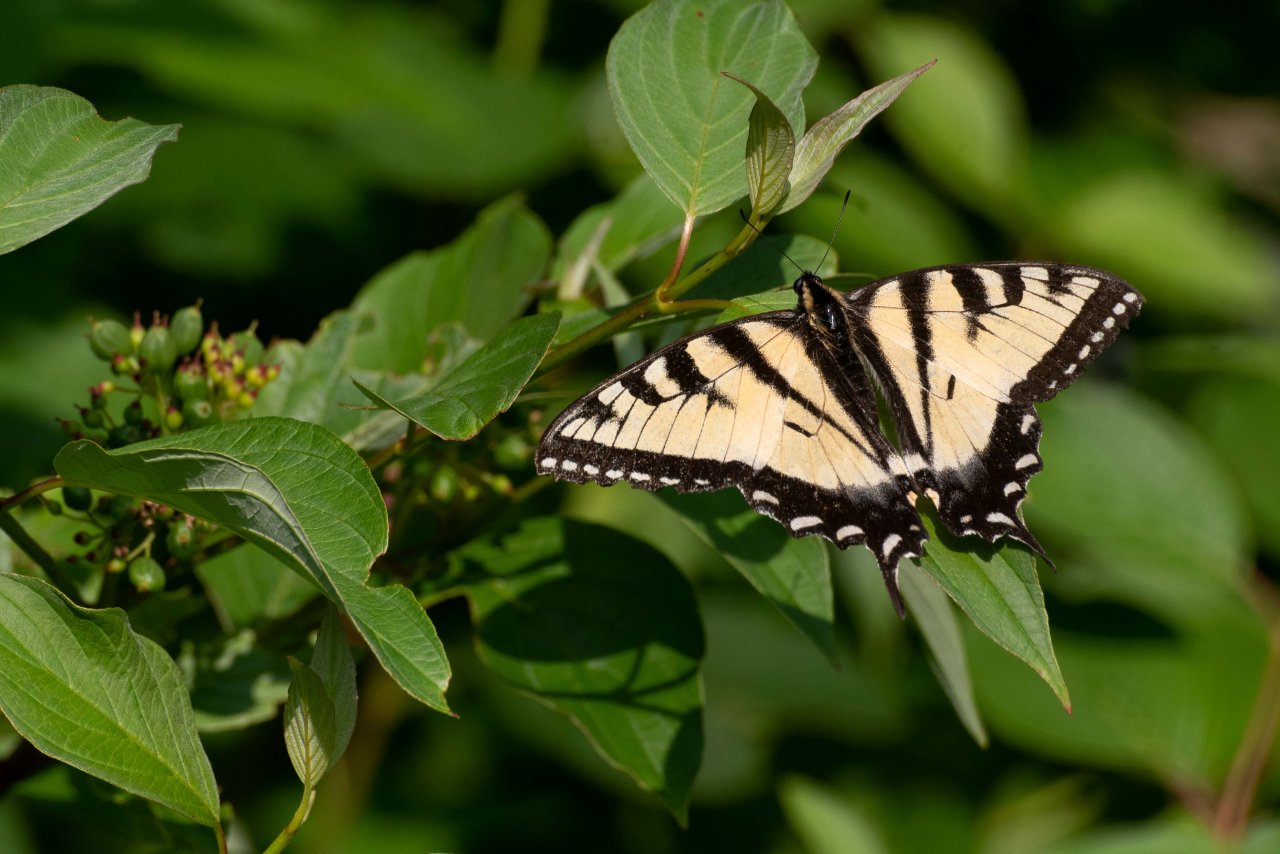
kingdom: Animalia
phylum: Arthropoda
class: Insecta
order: Lepidoptera
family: Papilionidae
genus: Pterourus
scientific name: Pterourus canadensis
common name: Canadian Tiger Swallowtail
